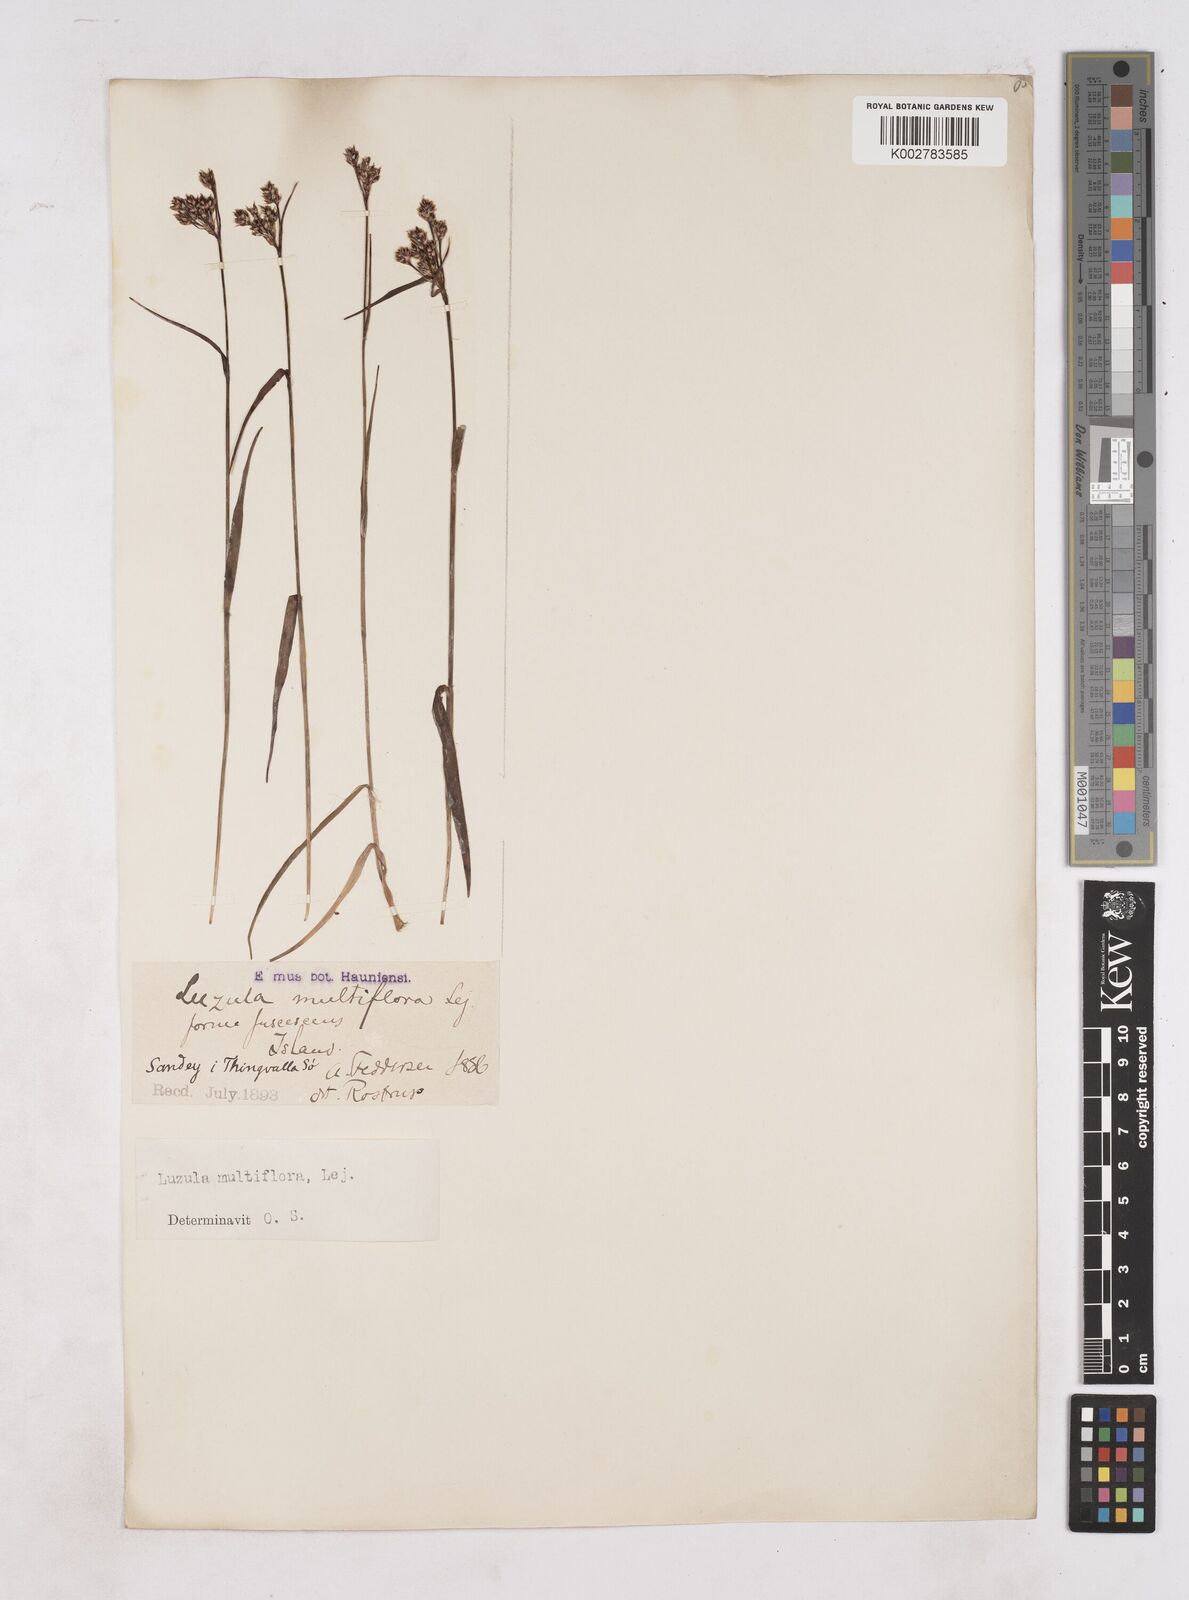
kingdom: Plantae
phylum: Tracheophyta
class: Liliopsida
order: Poales
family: Juncaceae
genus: Luzula
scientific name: Luzula
